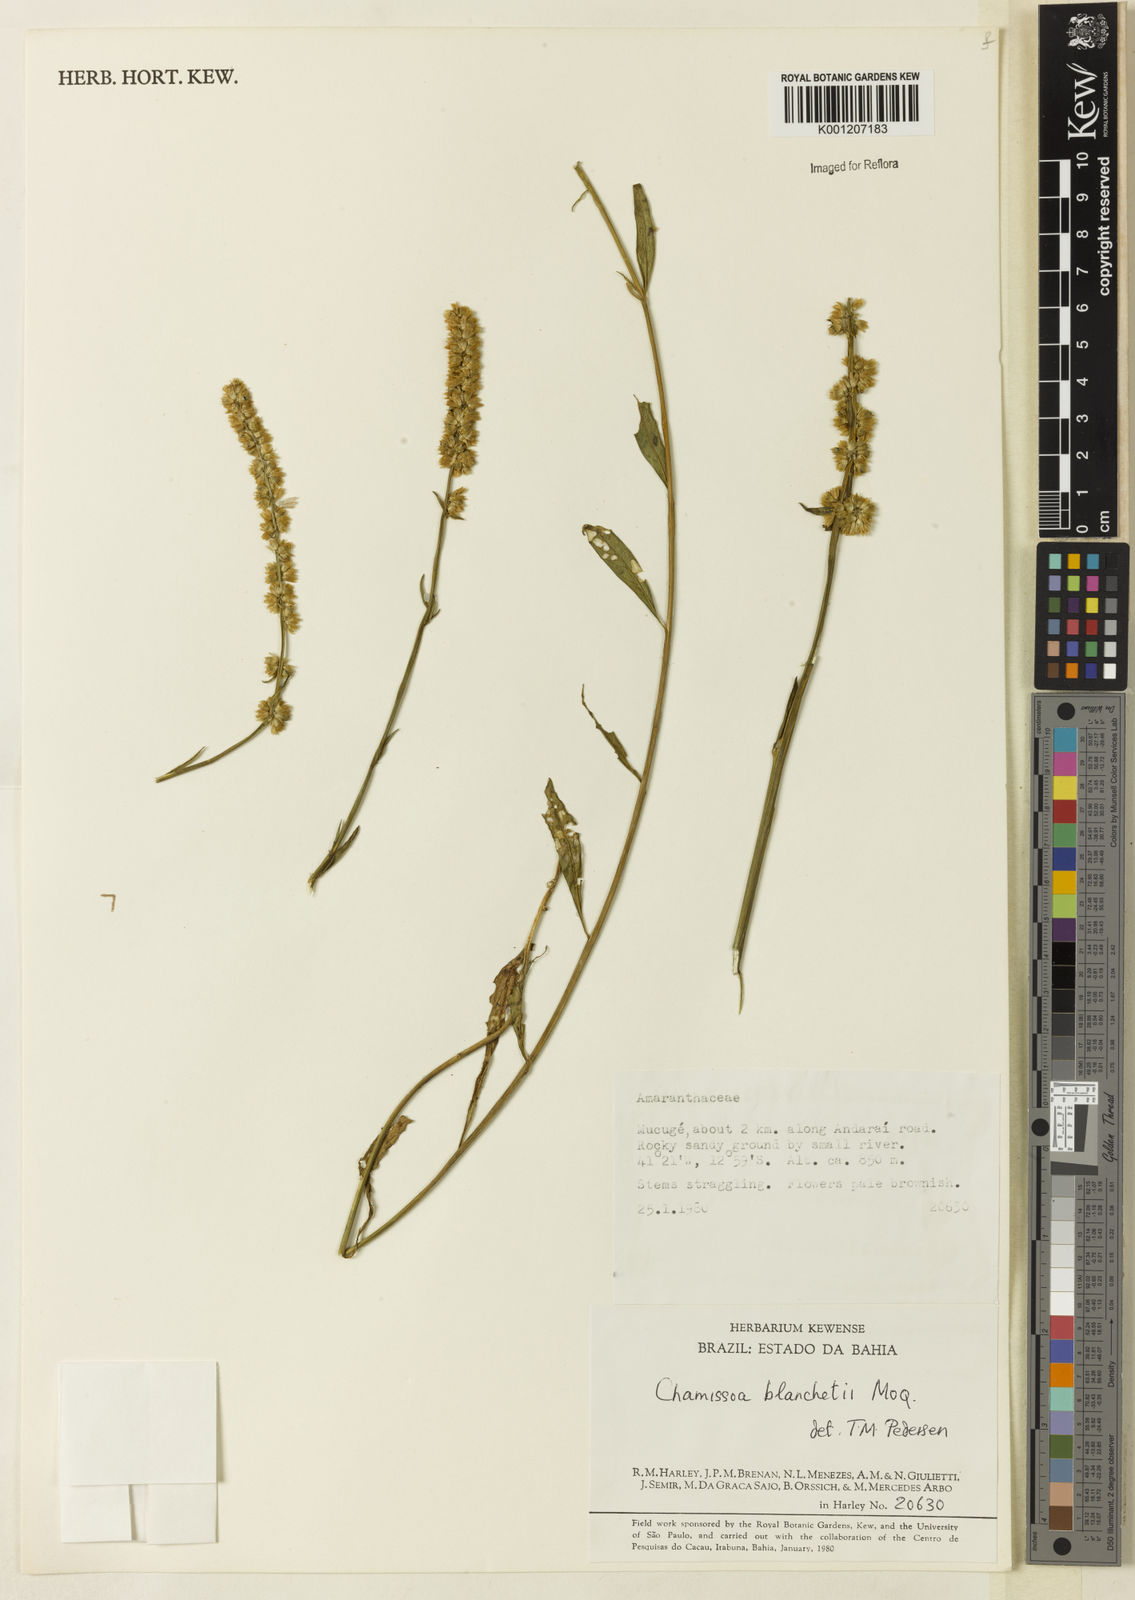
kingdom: Plantae
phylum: Tracheophyta
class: Magnoliopsida
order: Caryophyllales
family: Amaranthaceae
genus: Chamissoa
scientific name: Chamissoa acuminata
